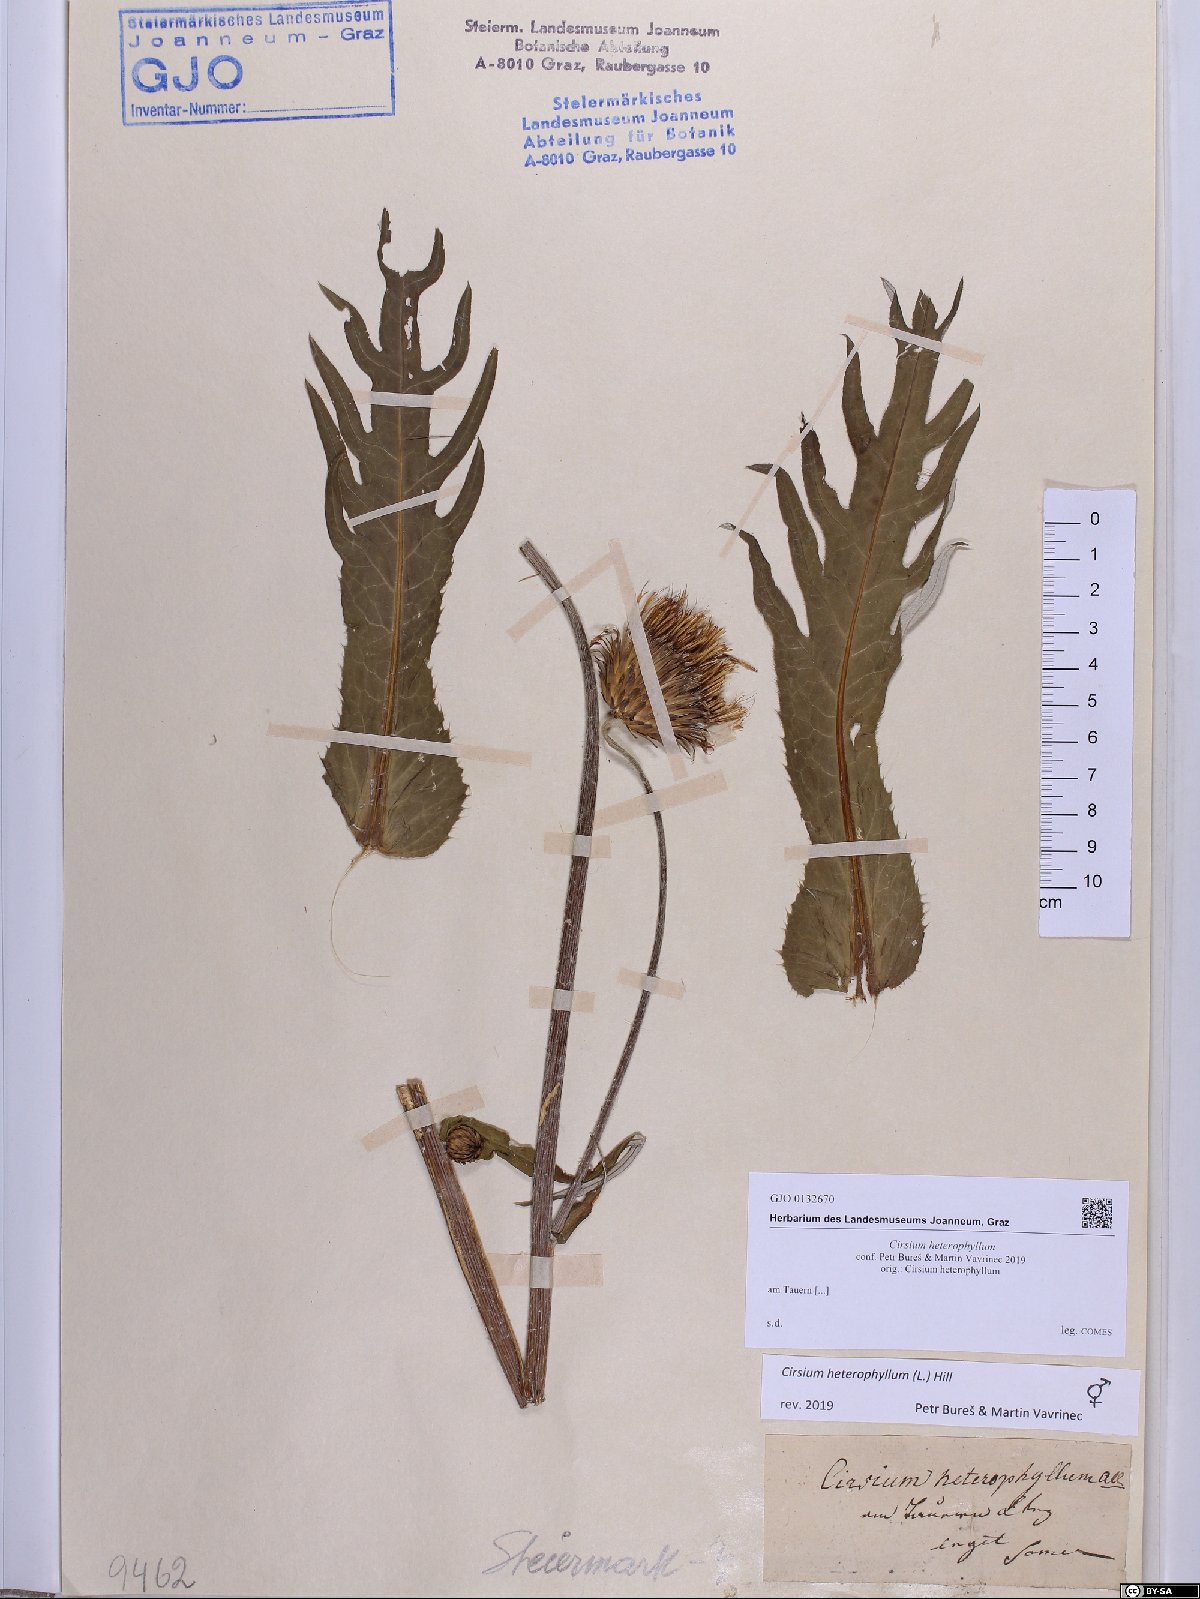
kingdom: Plantae
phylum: Tracheophyta
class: Magnoliopsida
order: Asterales
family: Asteraceae
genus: Cirsium
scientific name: Cirsium heterophyllum
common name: Melancholy thistle
